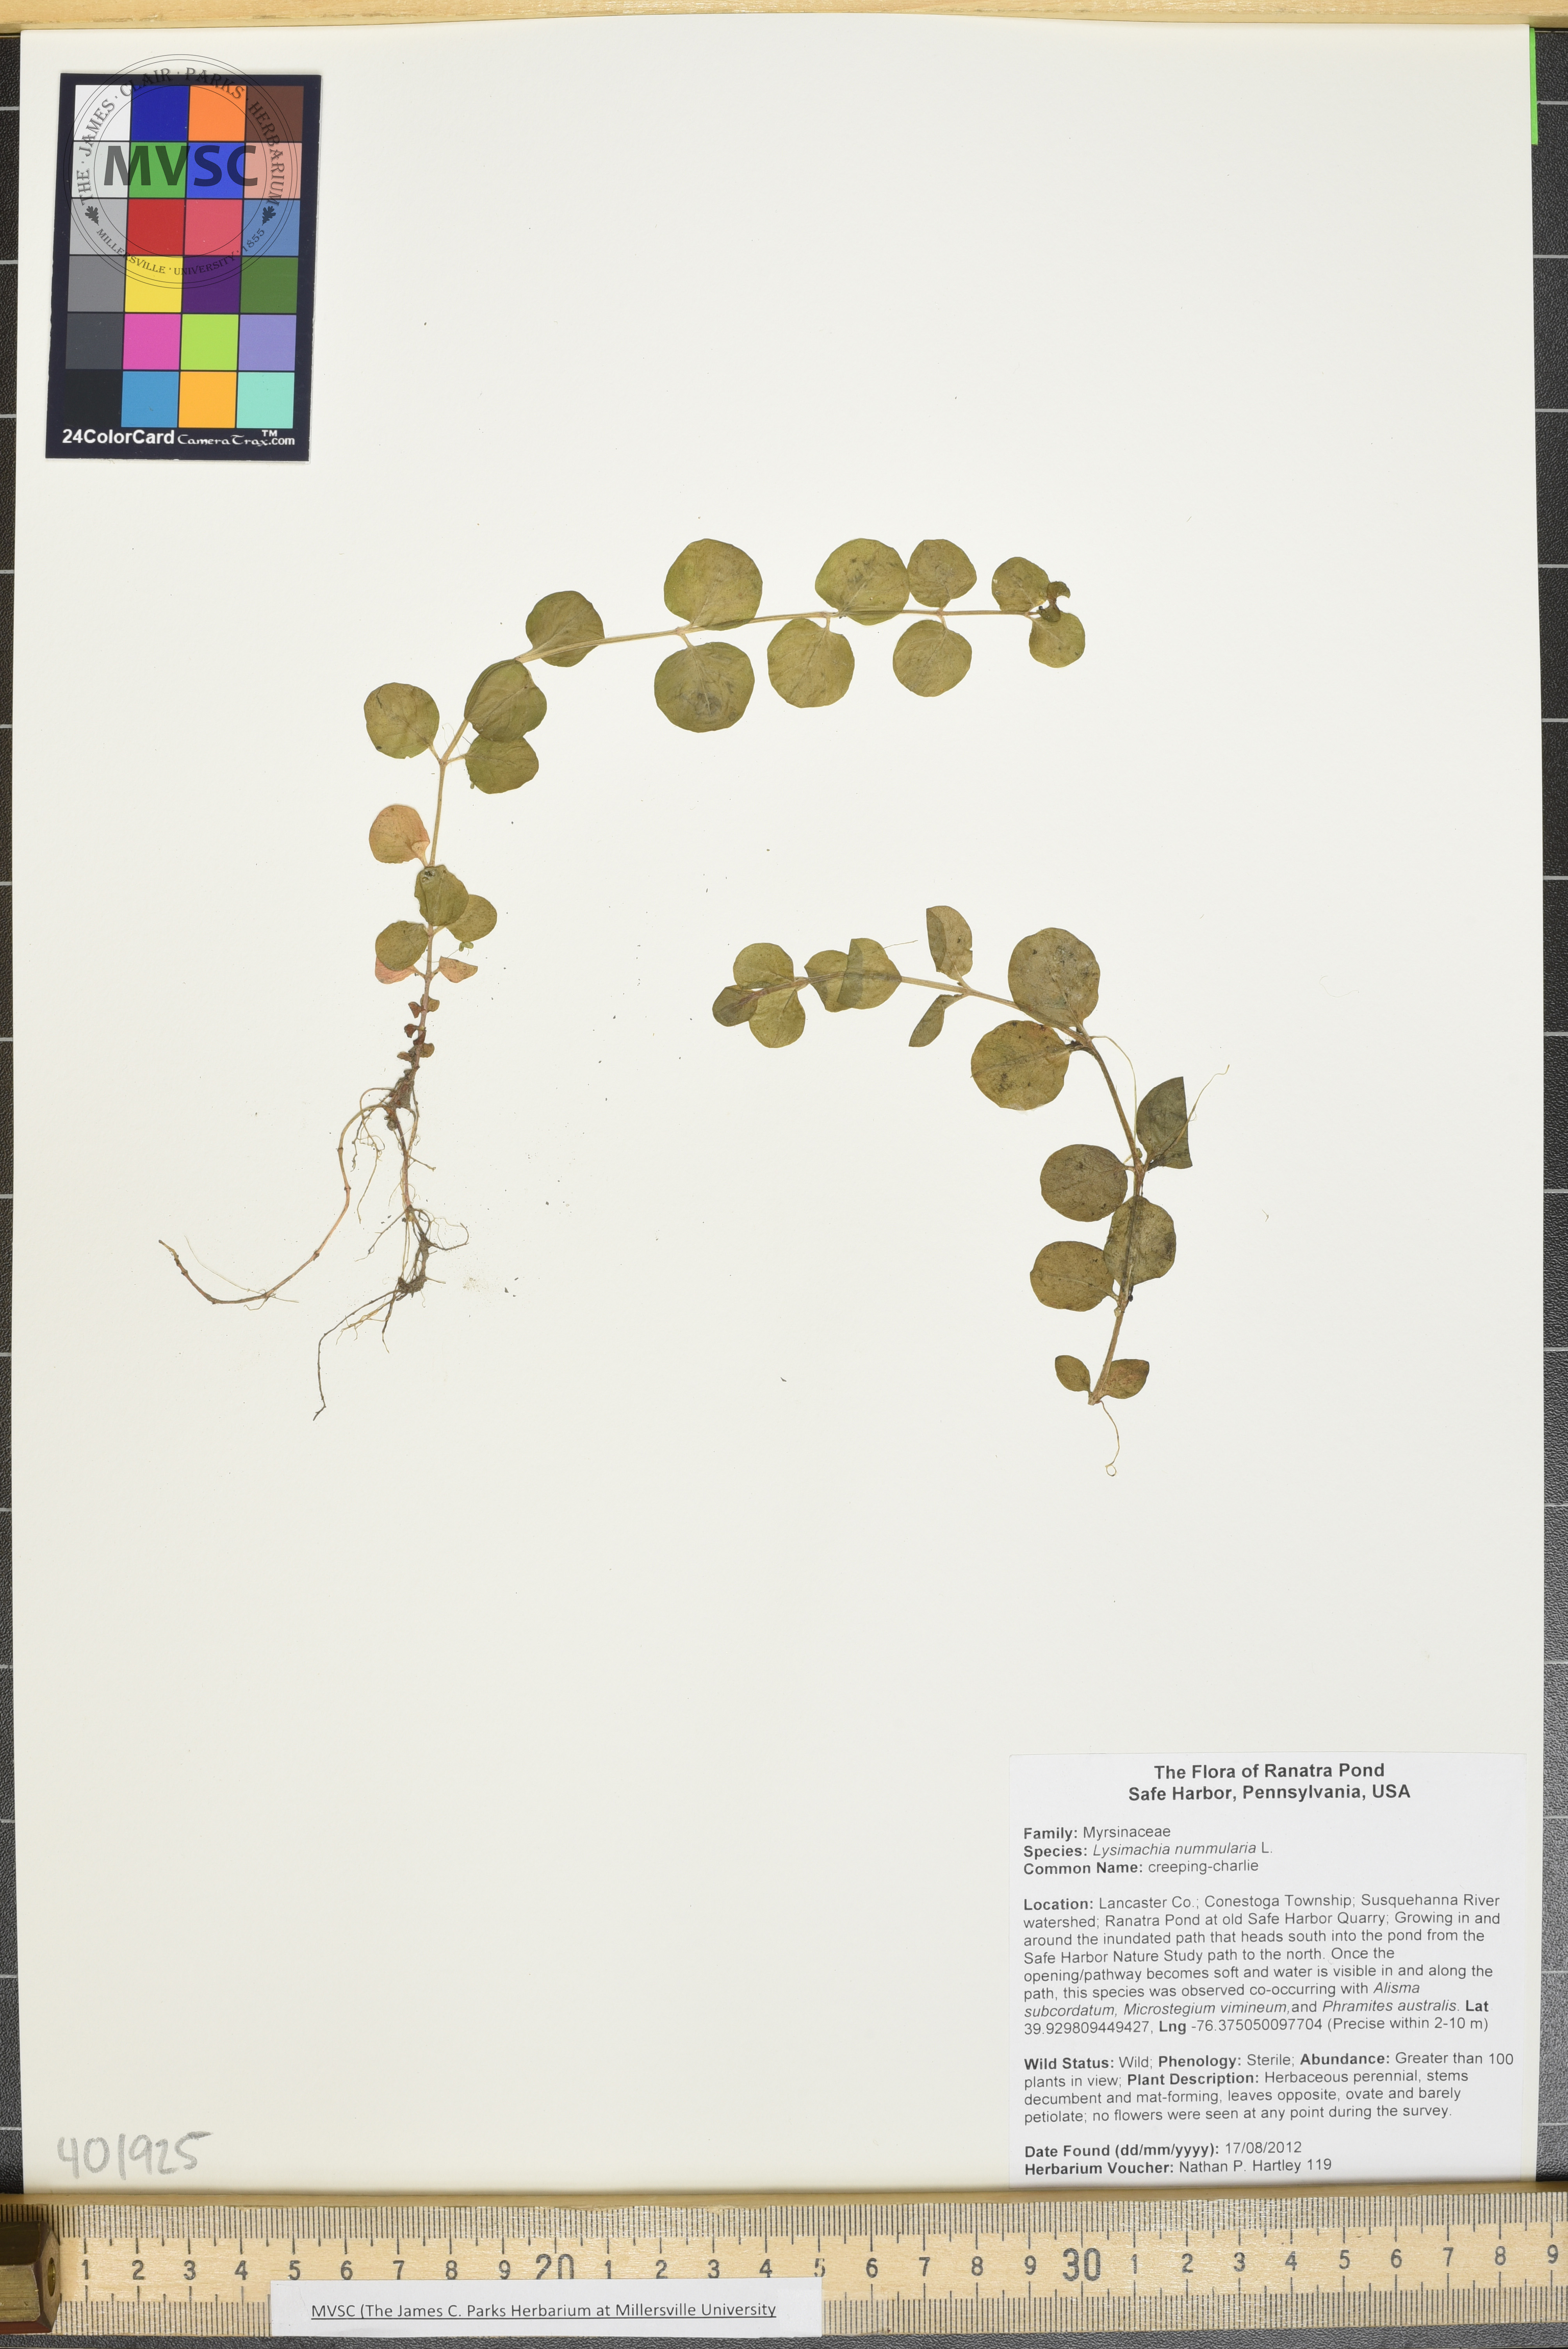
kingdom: Plantae
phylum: Tracheophyta
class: Magnoliopsida
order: Ericales
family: Primulaceae
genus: Lysimachia
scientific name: Lysimachia nummularia
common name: Creeping-Charlie
